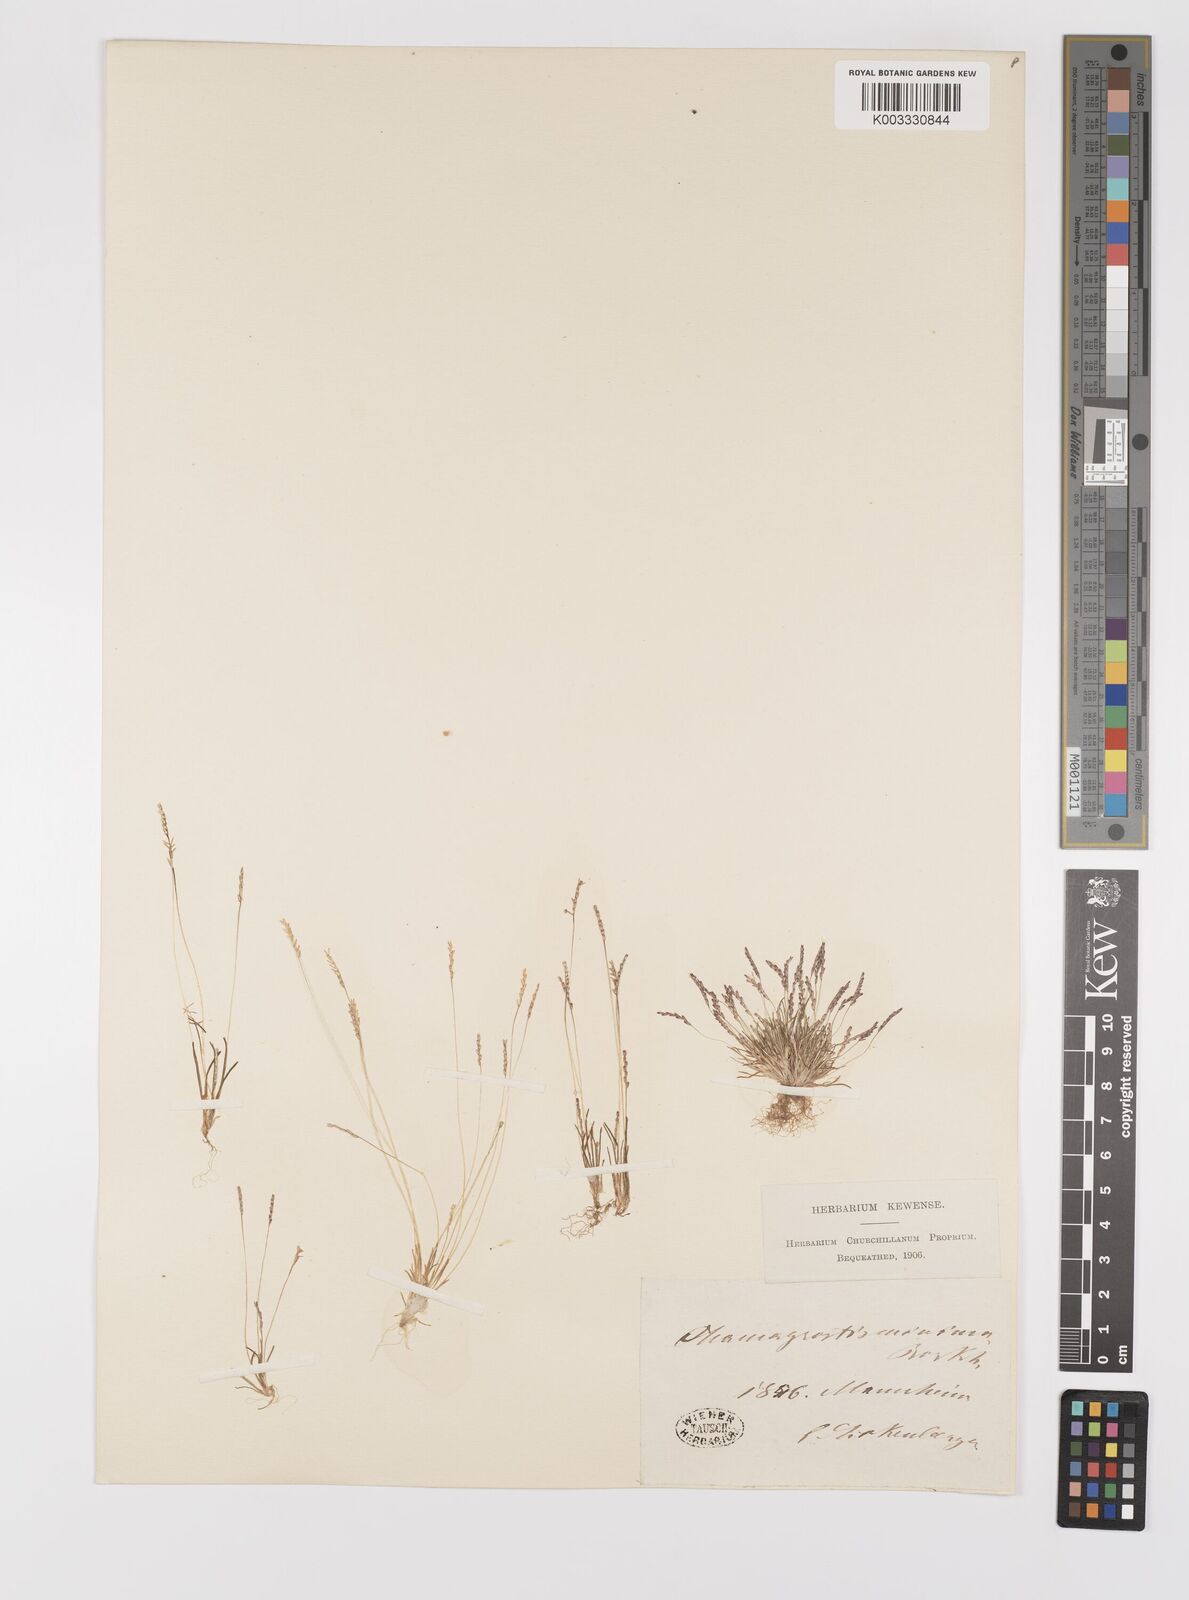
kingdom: Plantae
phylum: Tracheophyta
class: Liliopsida
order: Poales
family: Poaceae
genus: Mibora
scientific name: Mibora minima
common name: Early sand-grass
